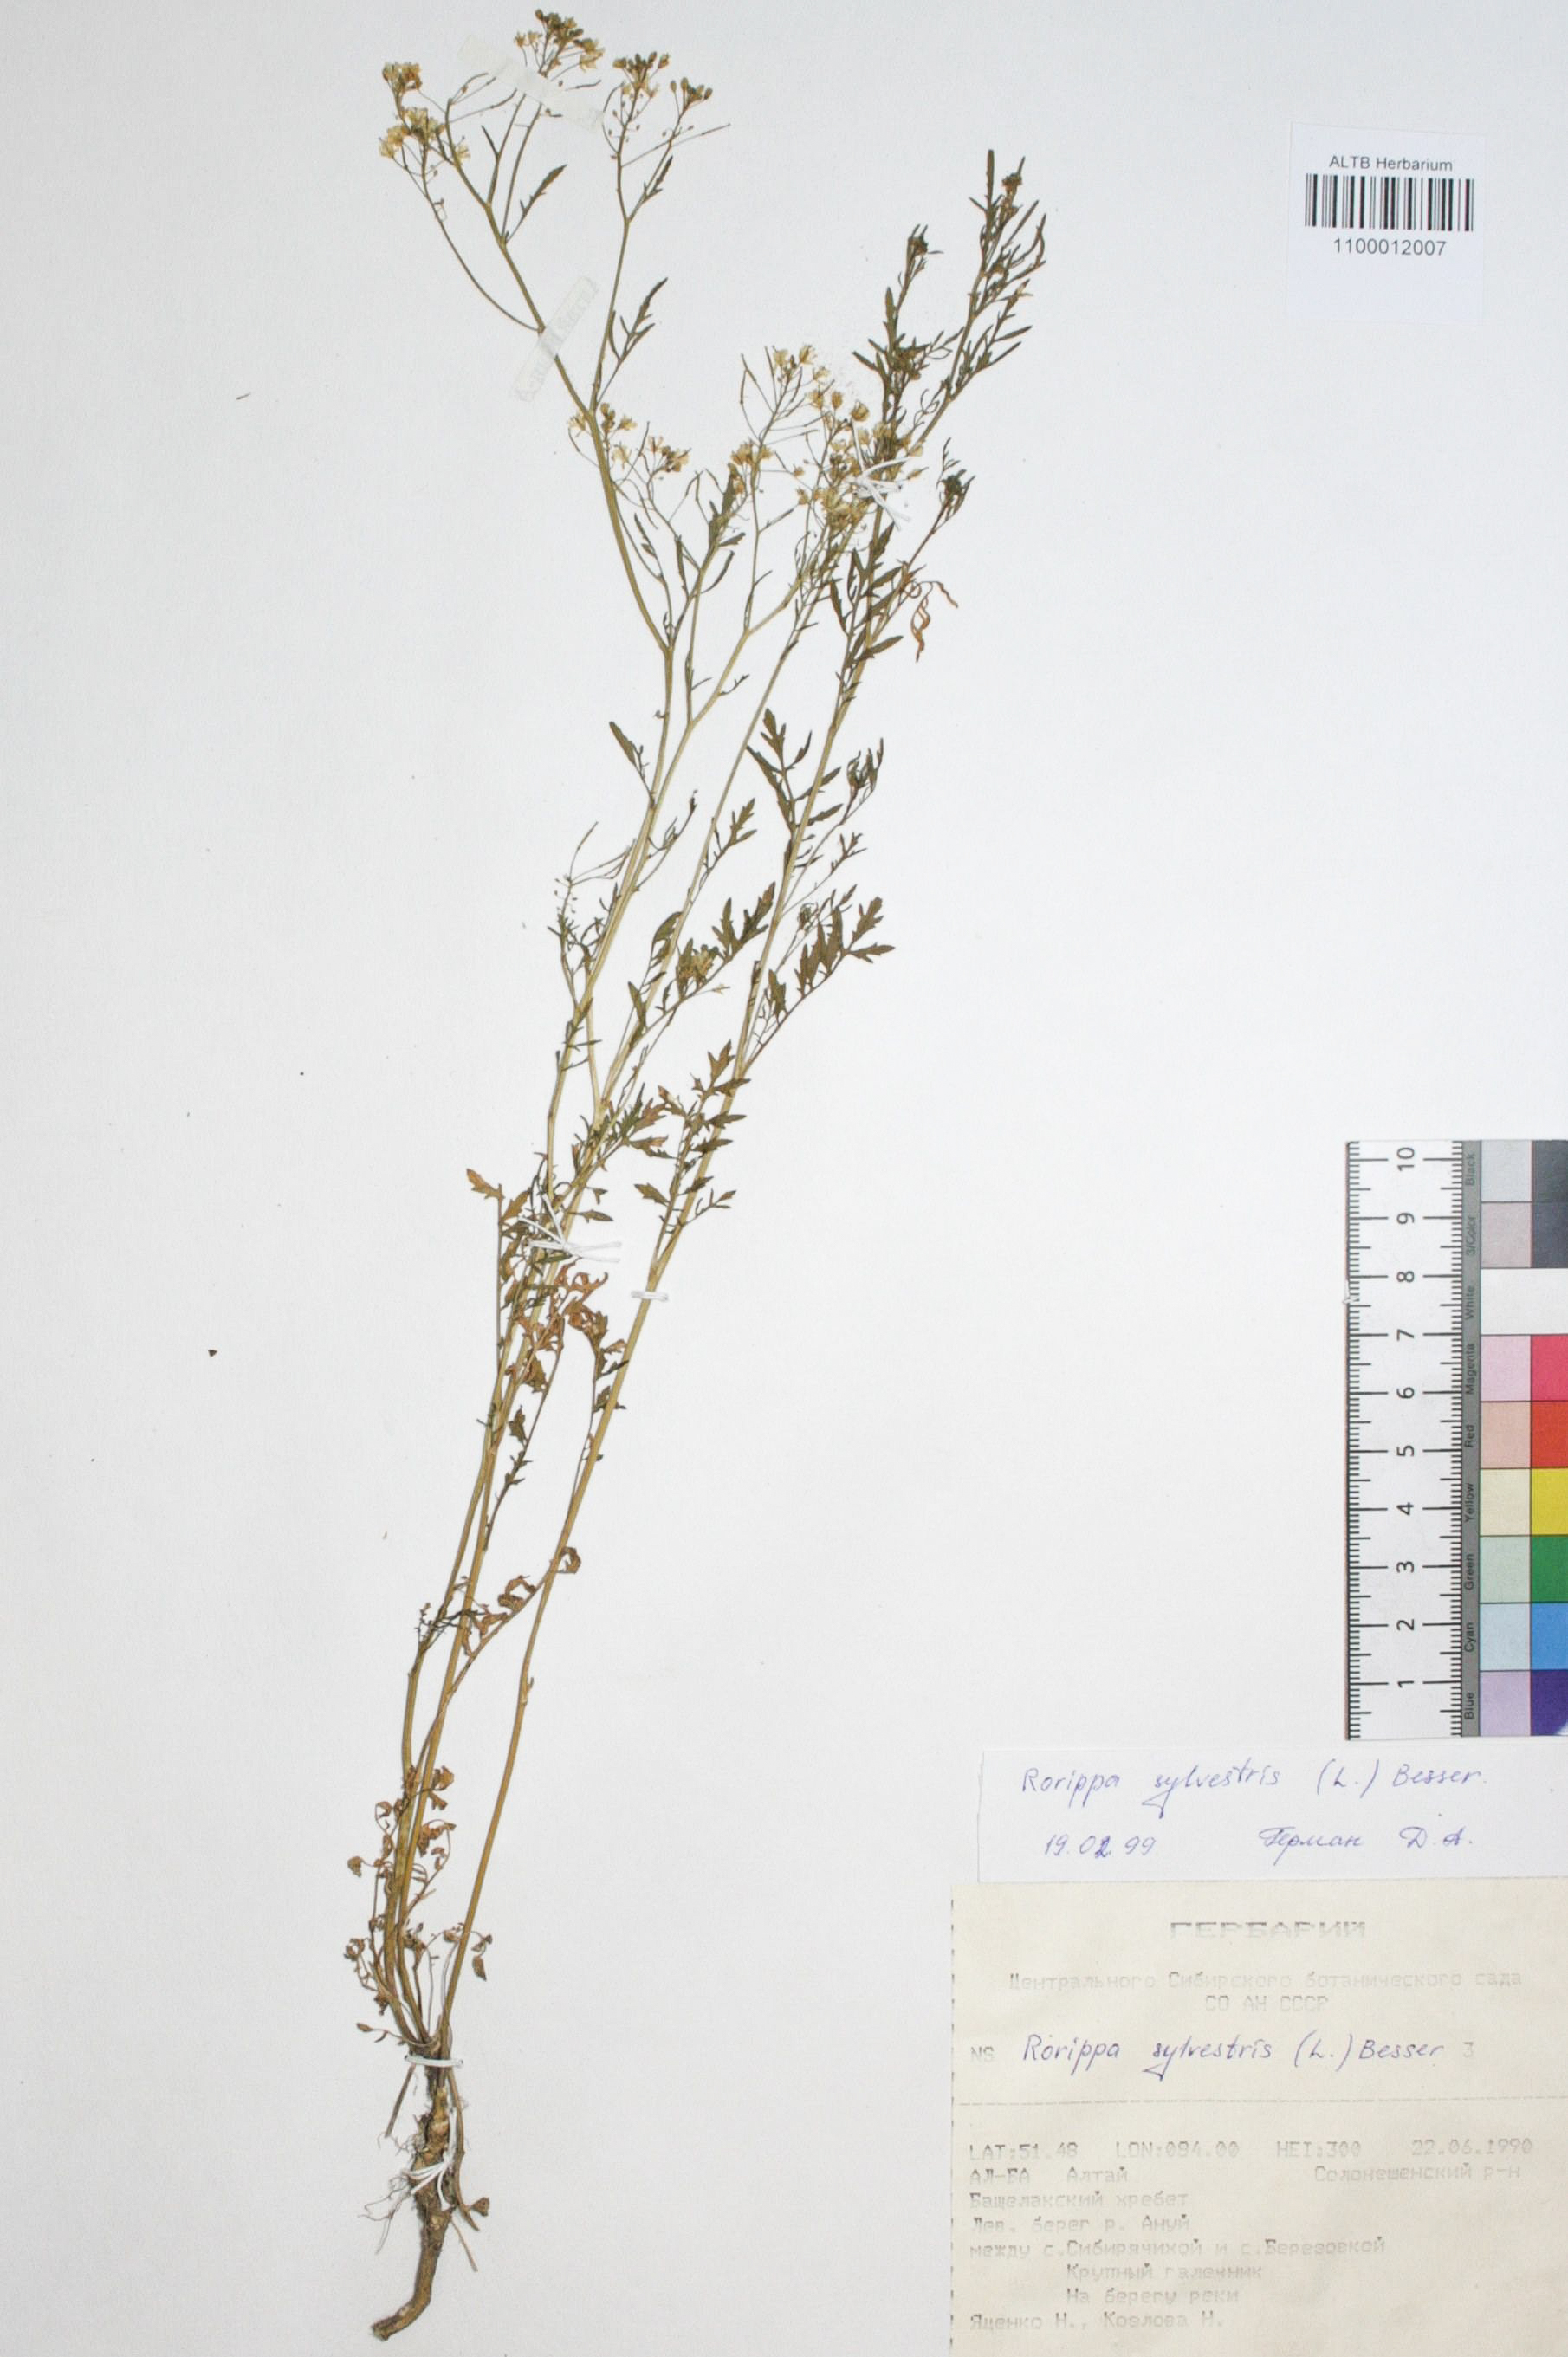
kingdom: Plantae
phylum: Tracheophyta
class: Magnoliopsida
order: Brassicales
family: Brassicaceae
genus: Rorippa
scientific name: Rorippa sylvestris
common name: Creeping yellowcress
